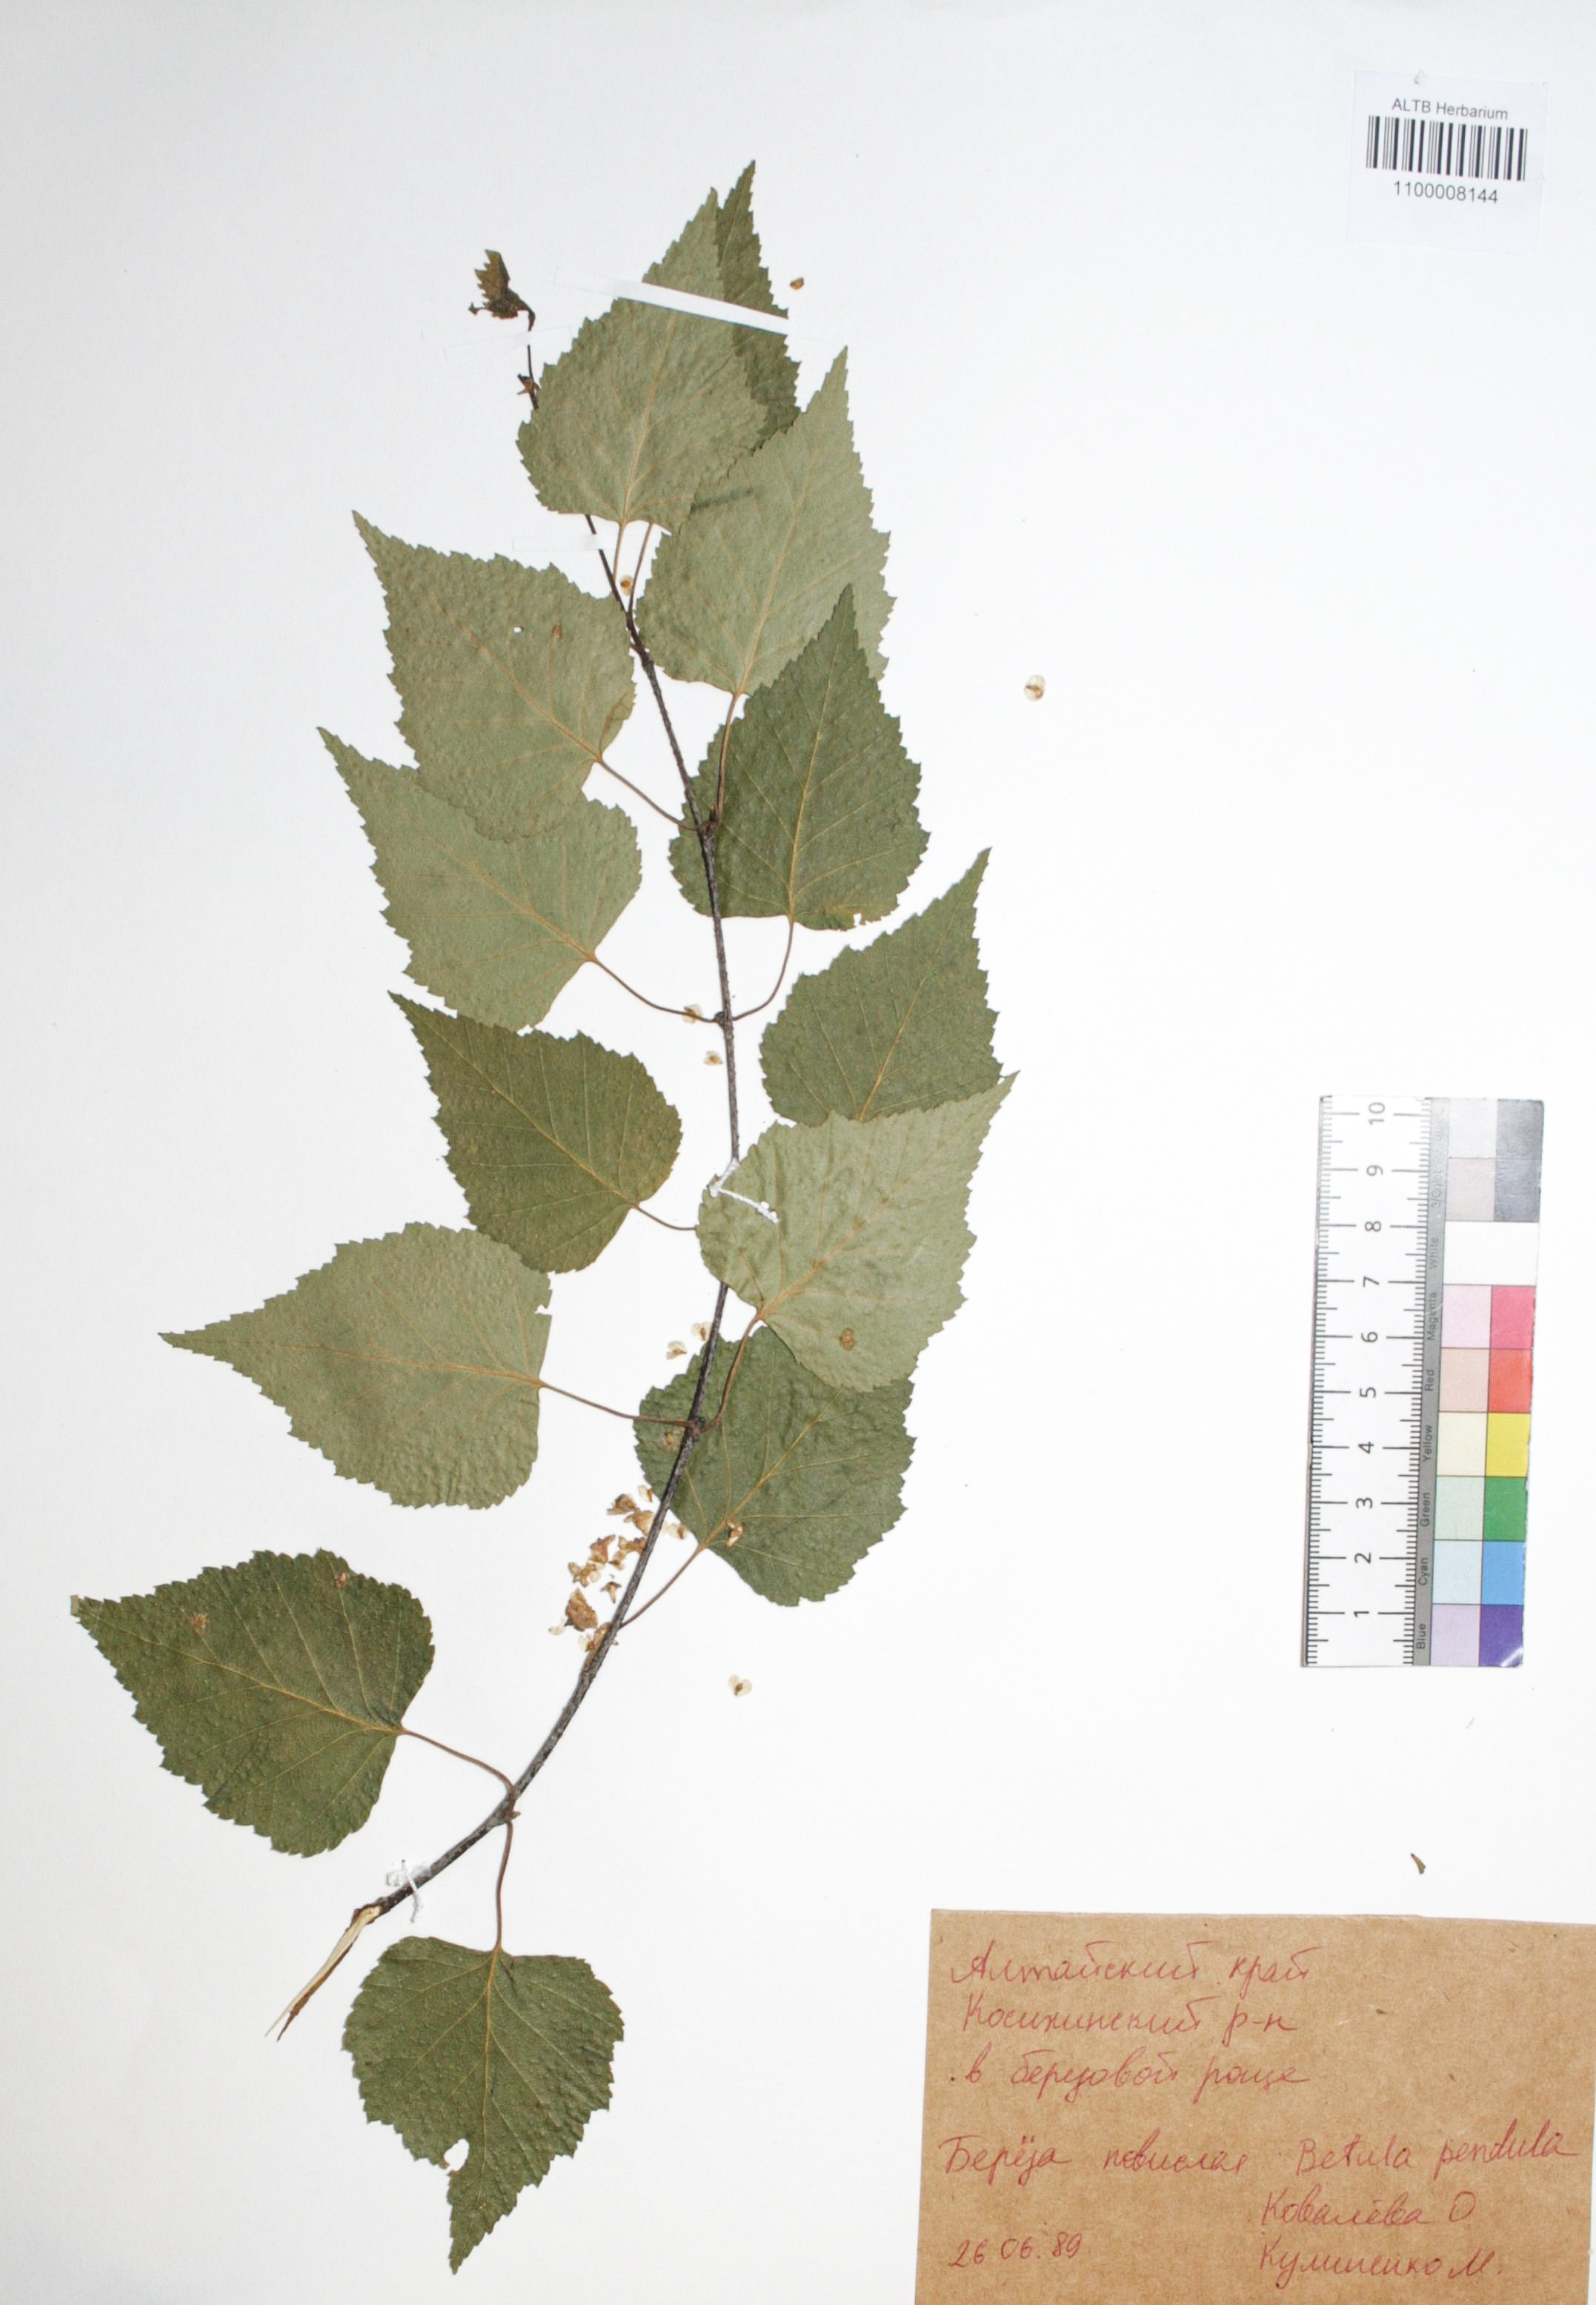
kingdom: Plantae
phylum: Tracheophyta
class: Magnoliopsida
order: Fagales
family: Betulaceae
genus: Betula
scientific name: Betula pendula
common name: Silver birch
